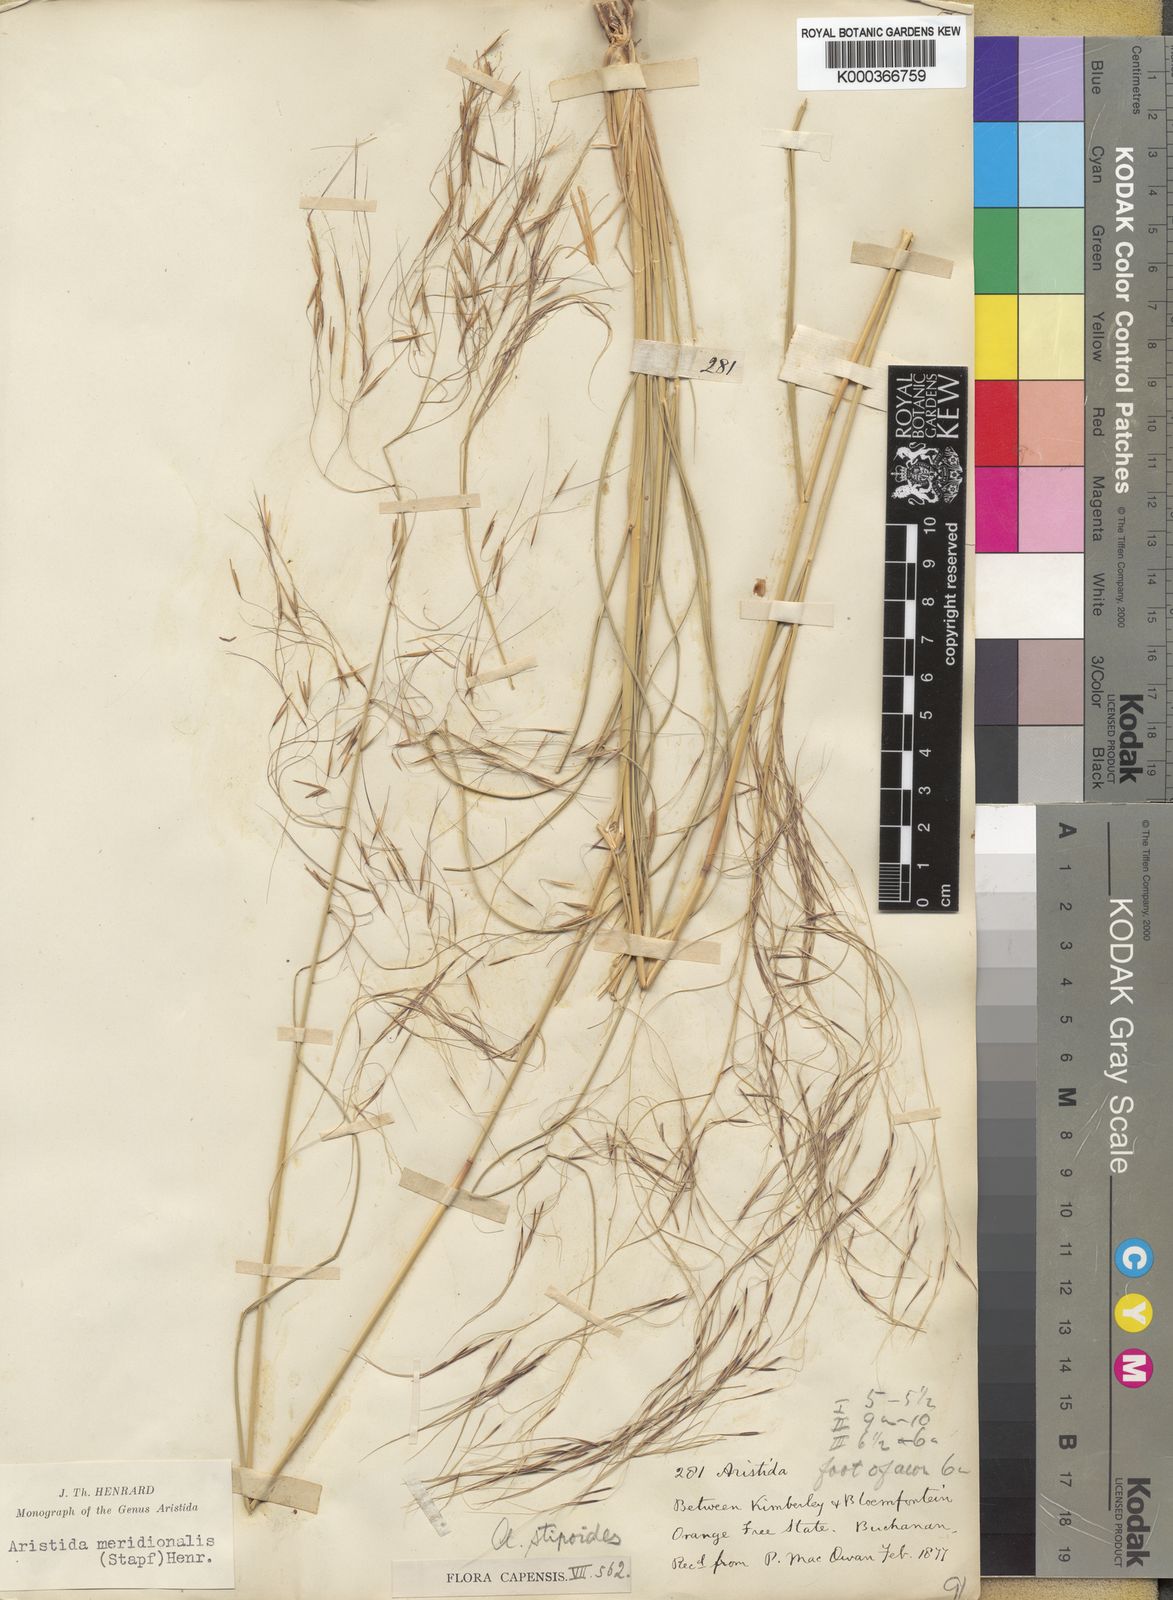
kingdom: Plantae
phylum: Tracheophyta
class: Liliopsida
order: Poales
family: Poaceae
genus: Aristida
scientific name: Aristida meridionalis
